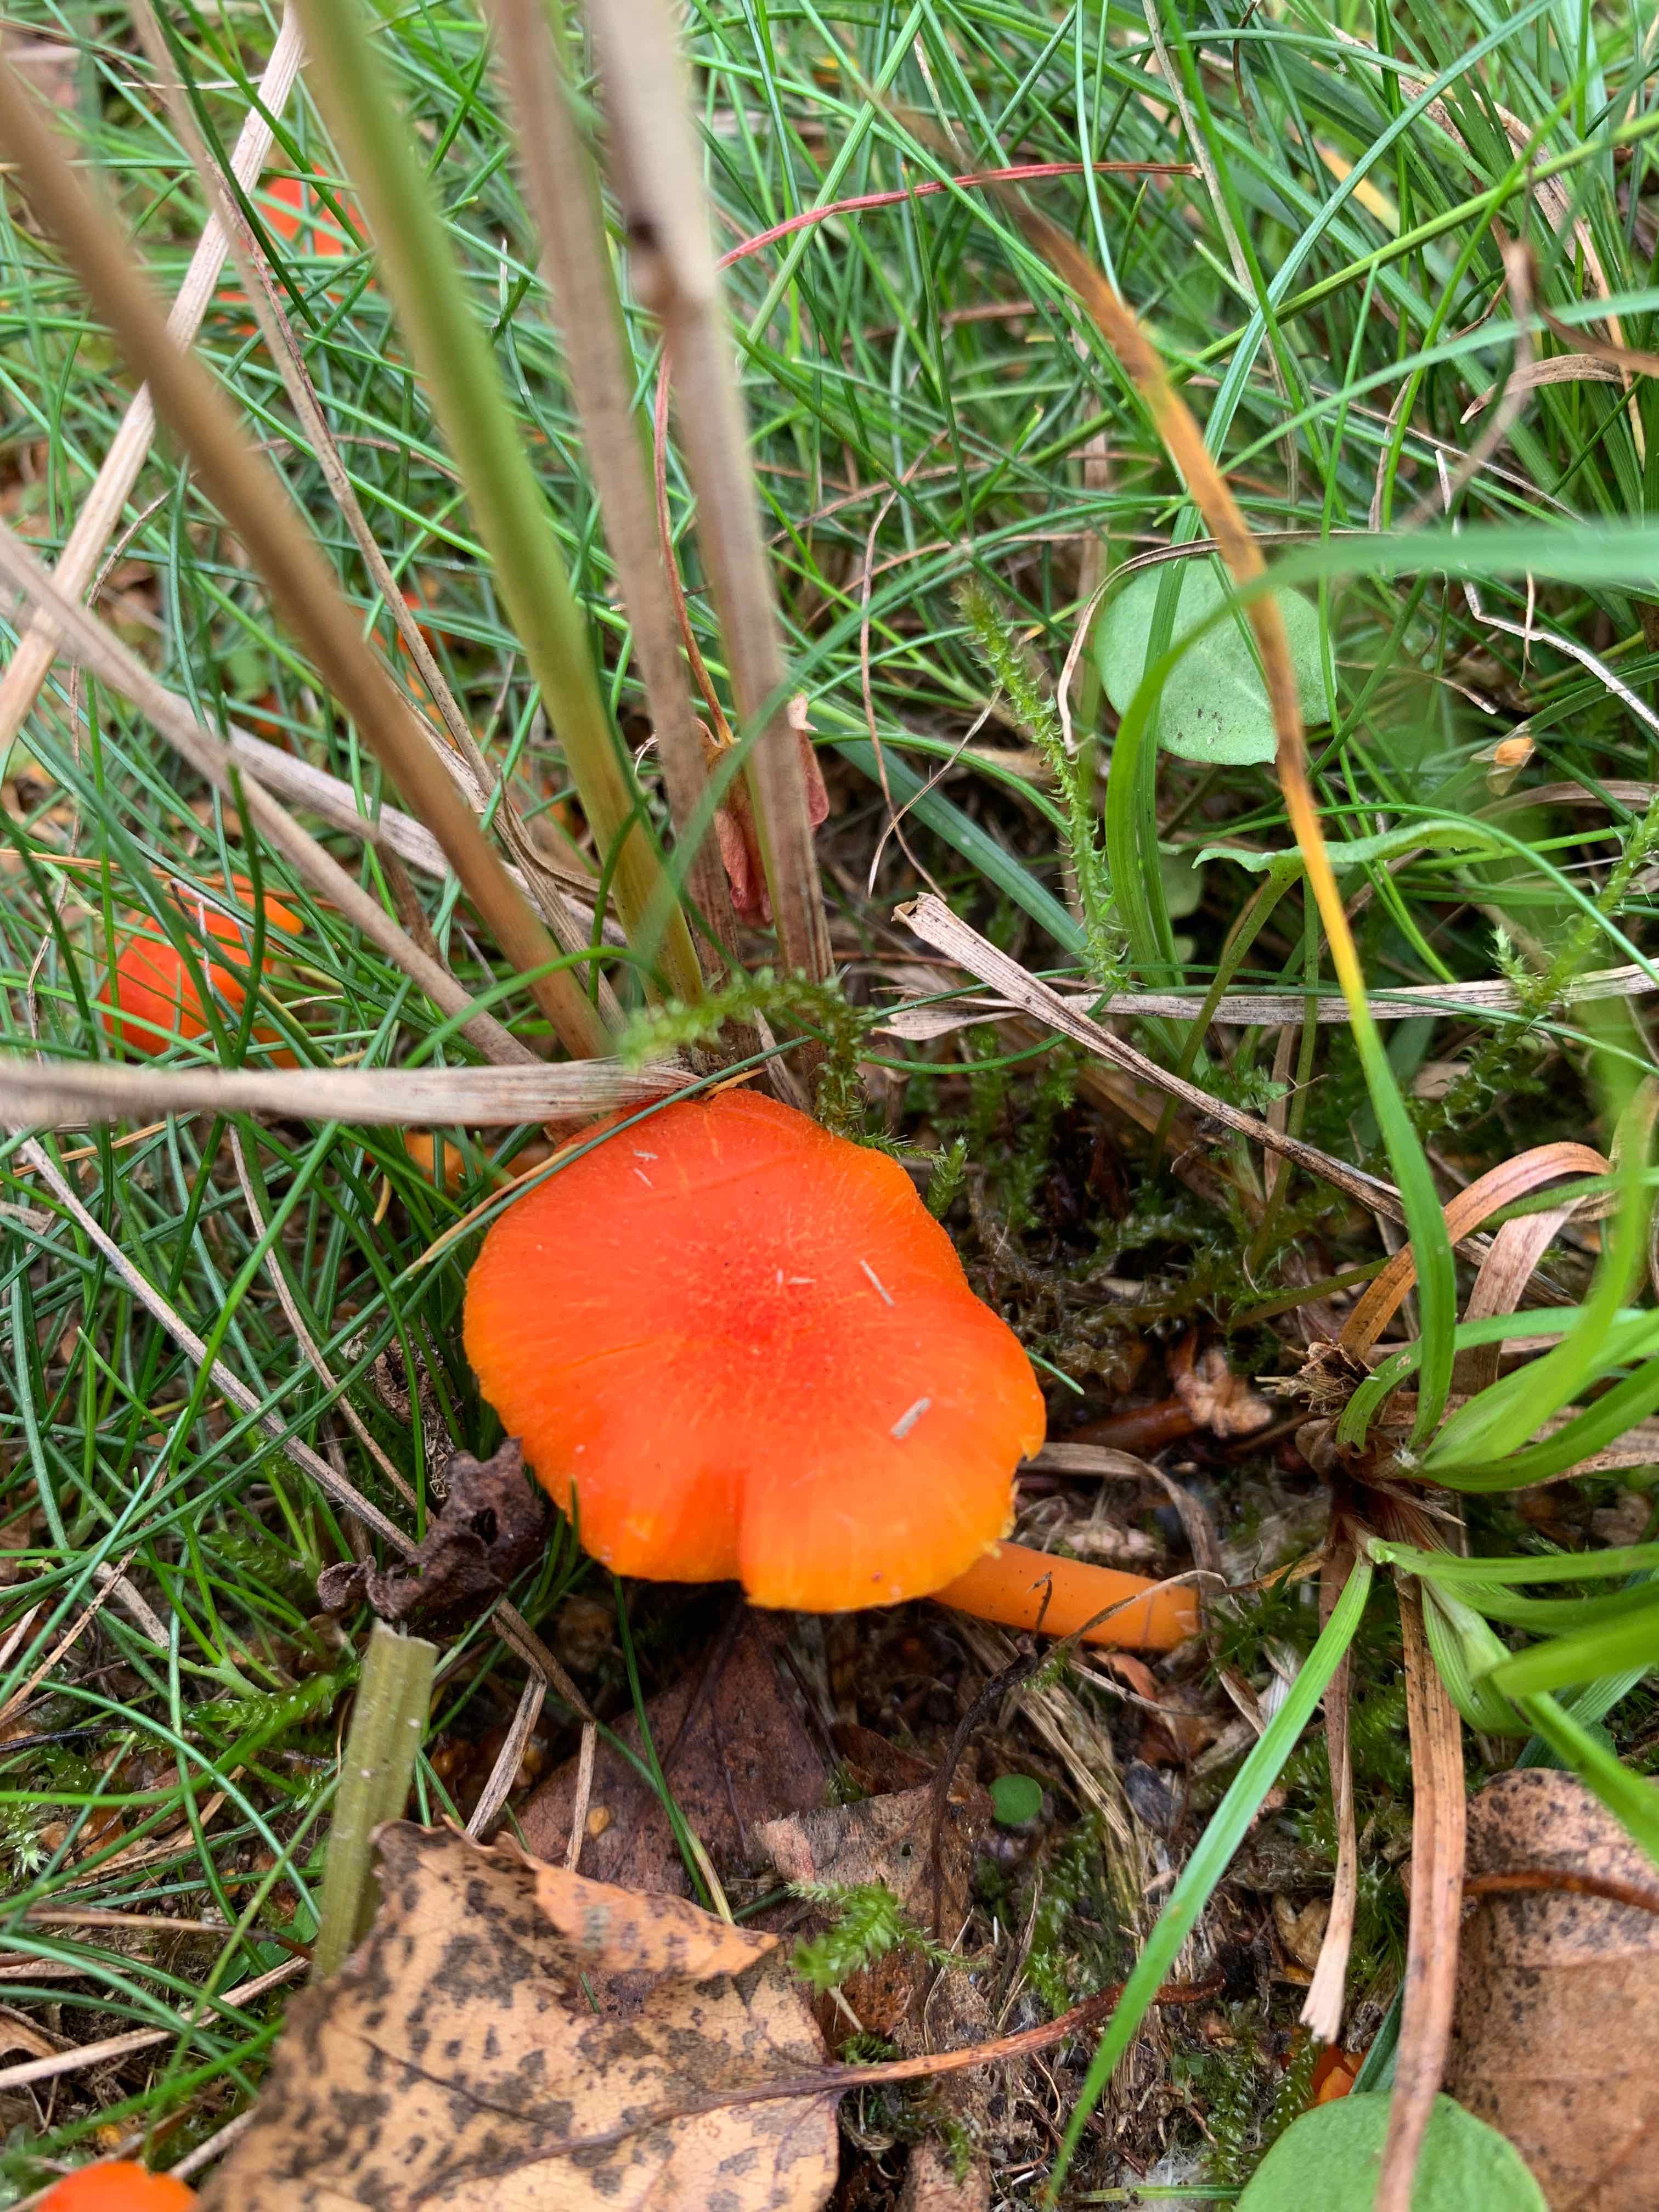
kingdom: Fungi
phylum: Basidiomycota
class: Agaricomycetes
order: Agaricales
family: Hygrophoraceae
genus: Hygrocybe
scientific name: Hygrocybe miniata
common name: mønje-vokshat
